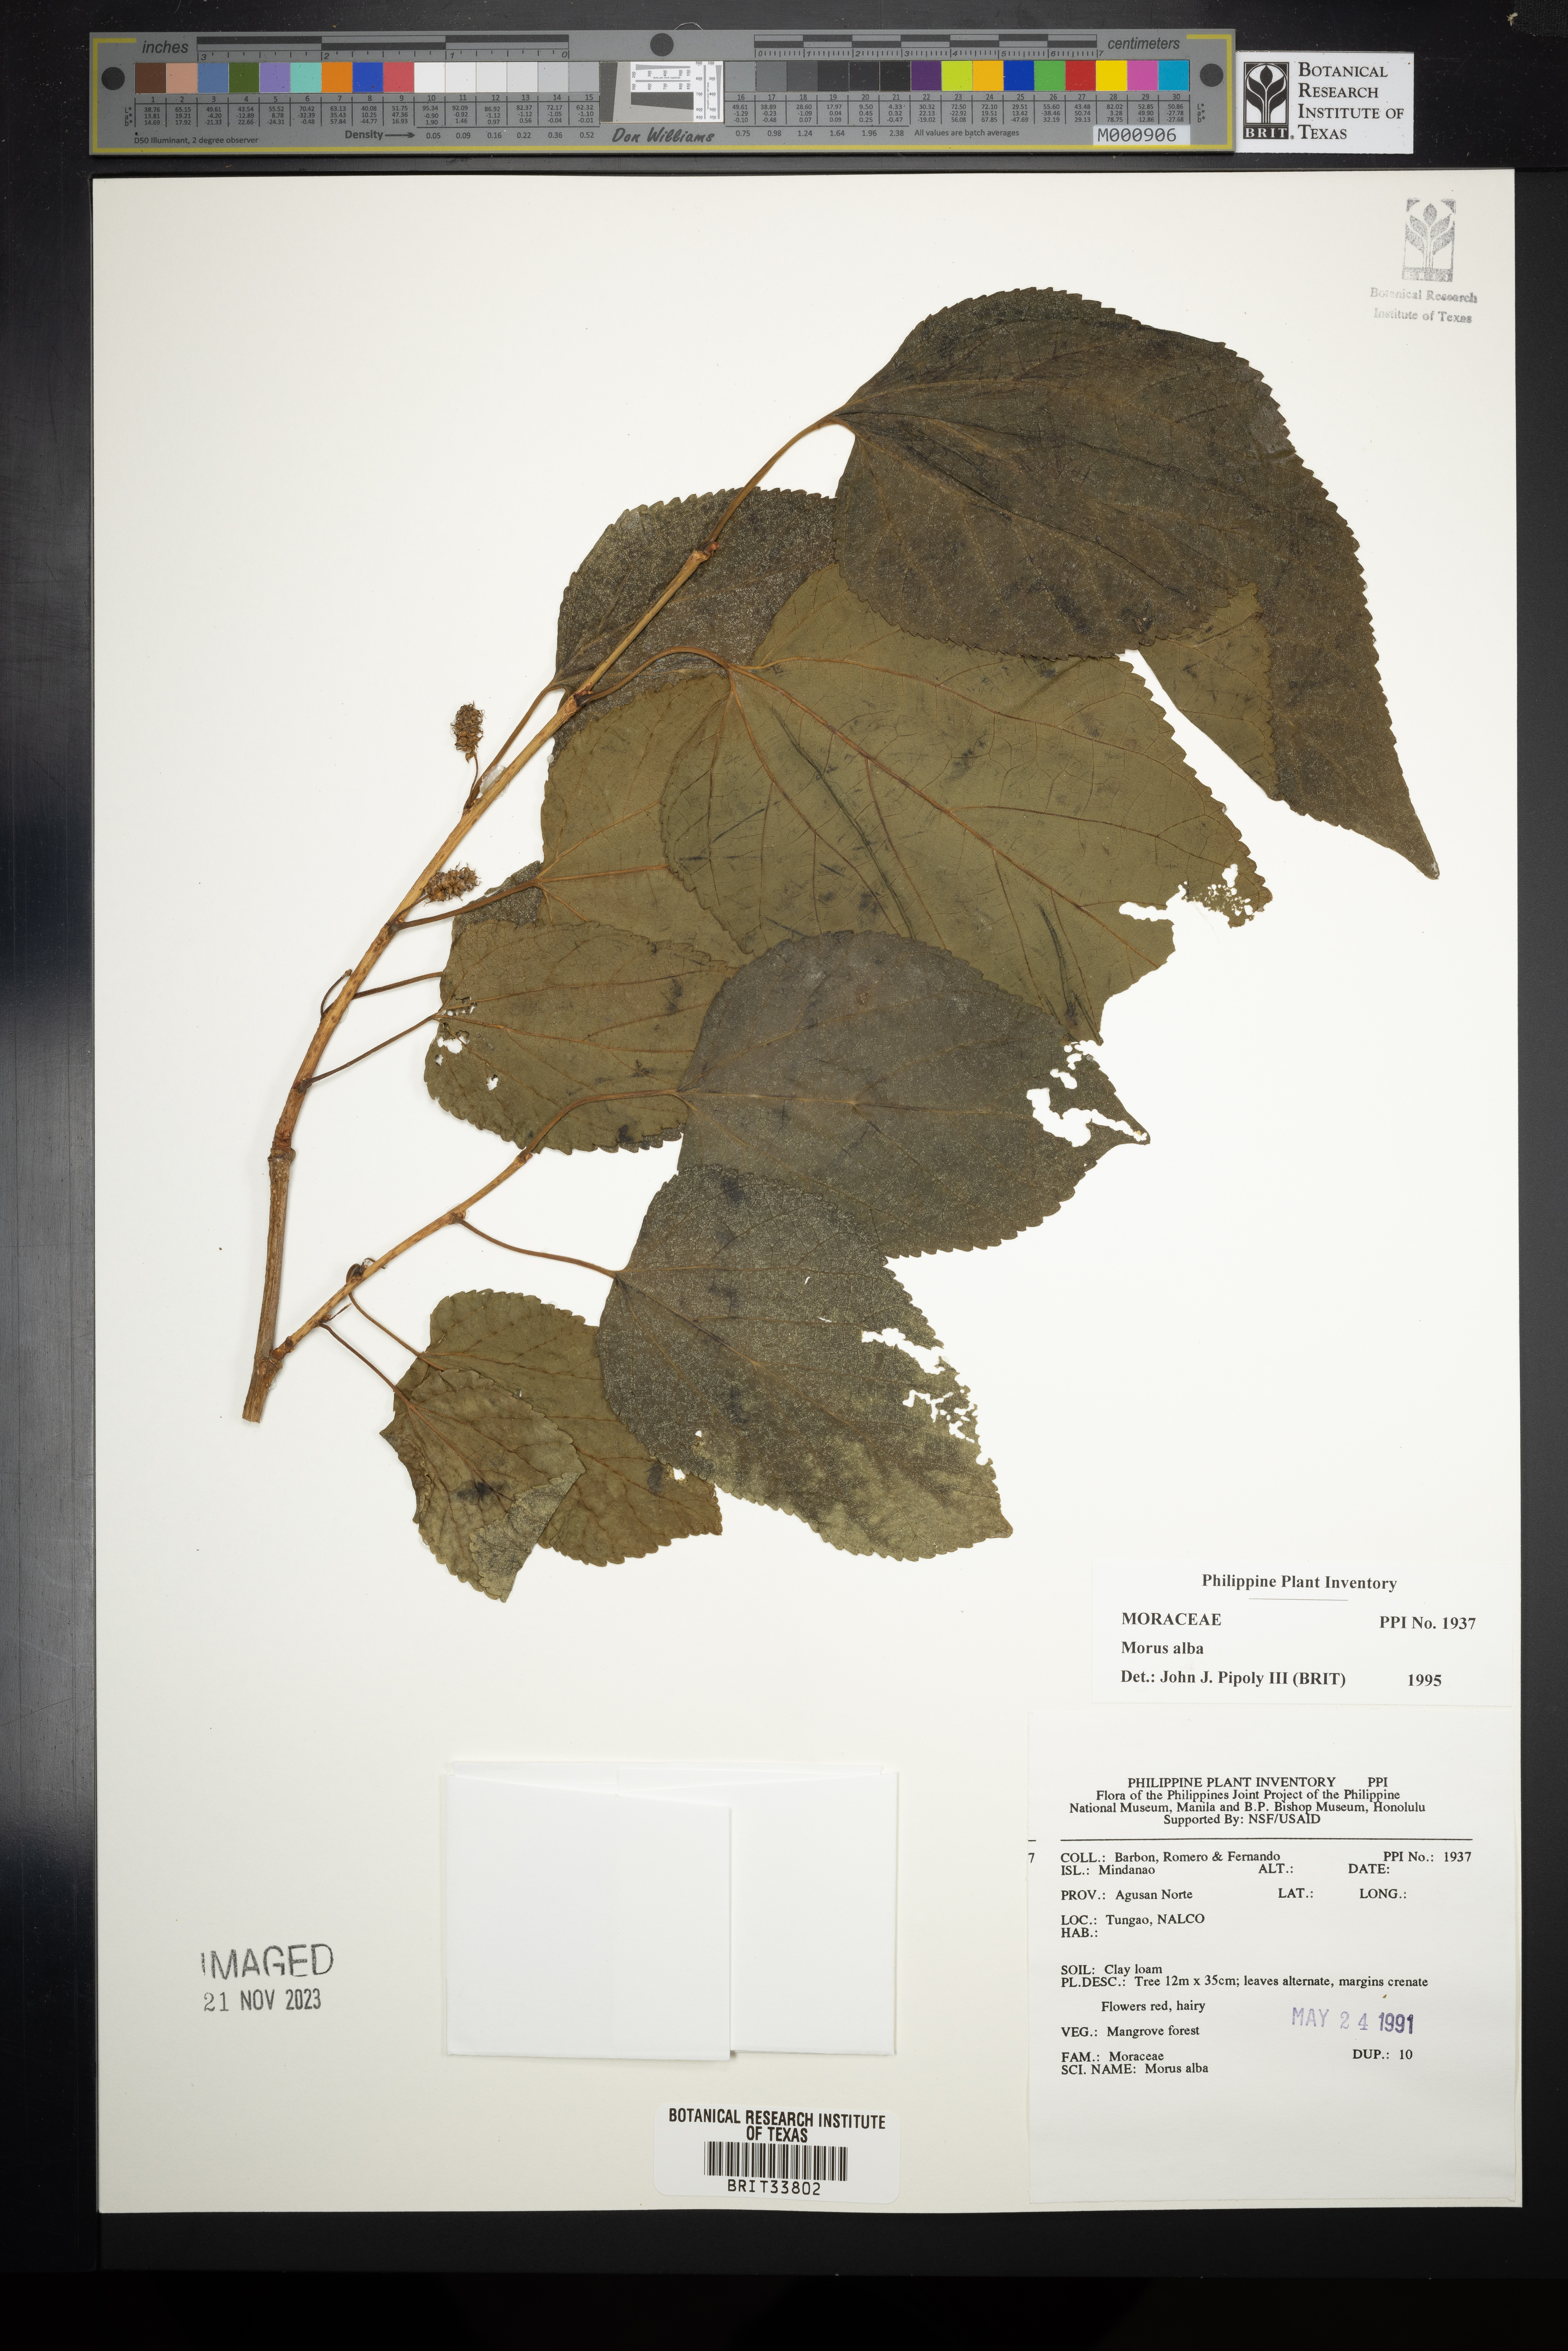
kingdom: Plantae
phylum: Tracheophyta
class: Magnoliopsida
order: Rosales
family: Moraceae
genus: Morus
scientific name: Morus alba
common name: White mulberry
